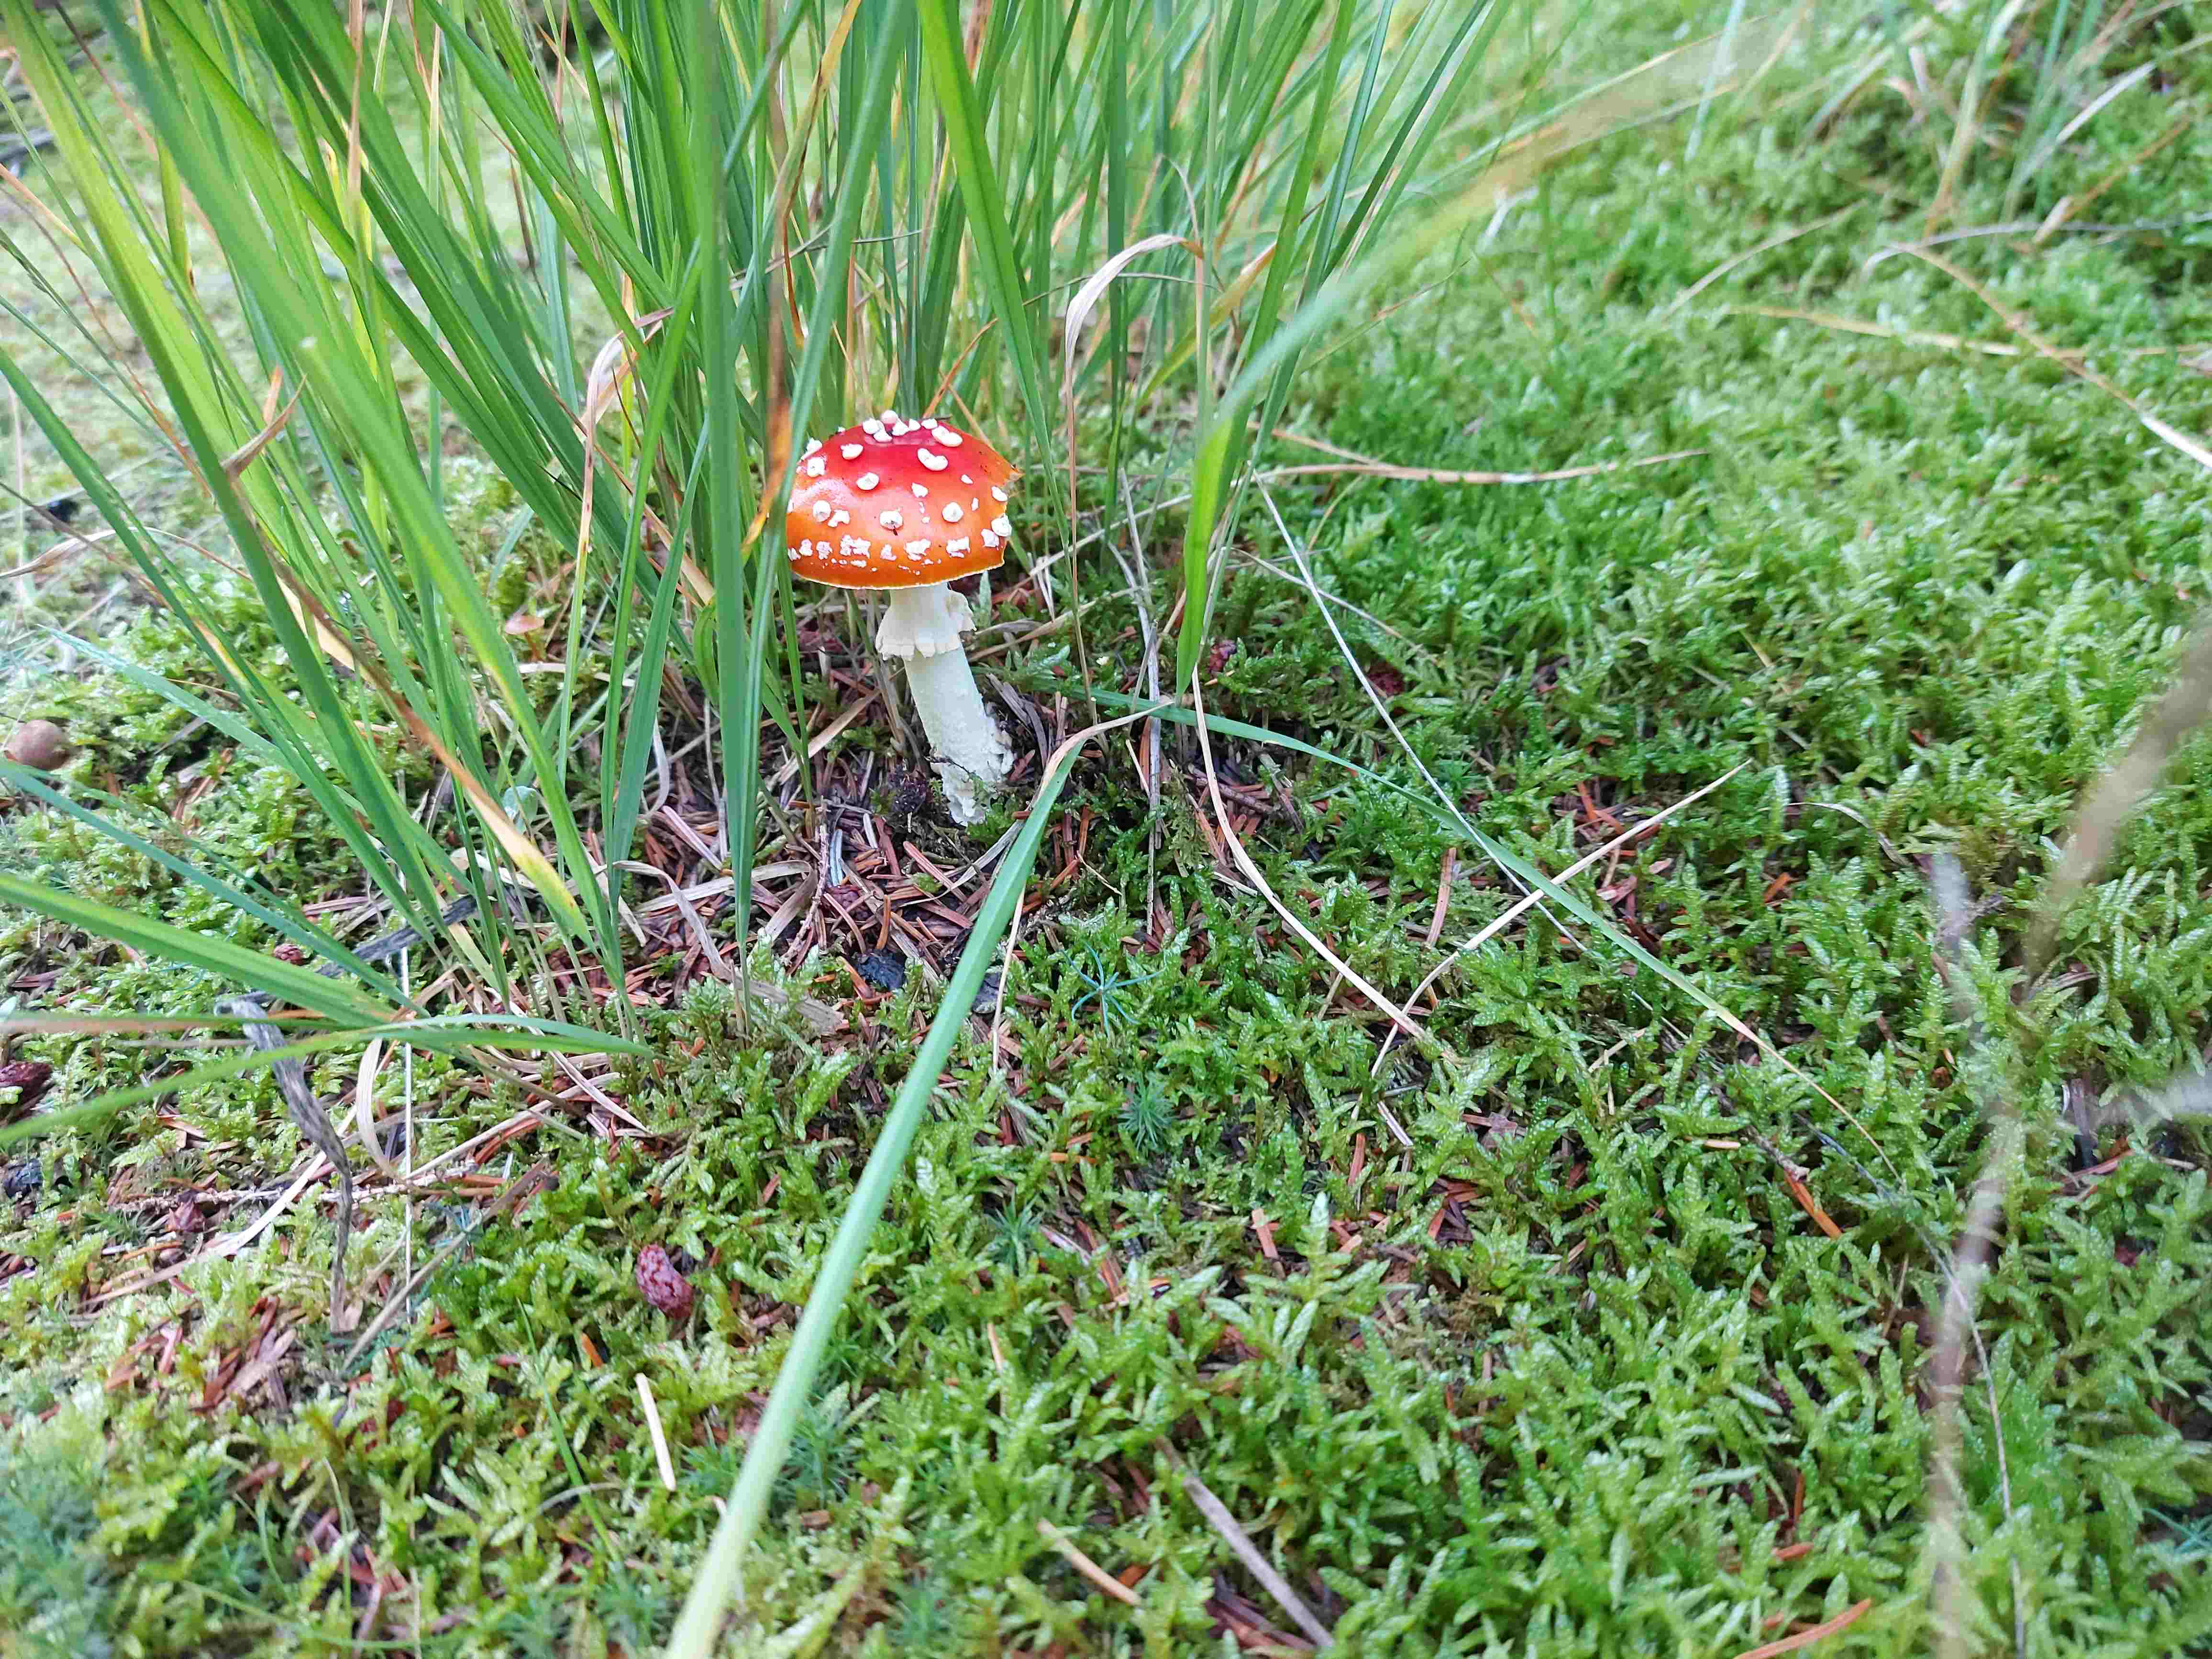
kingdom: Fungi
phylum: Basidiomycota
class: Agaricomycetes
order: Agaricales
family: Amanitaceae
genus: Amanita
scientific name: Amanita muscaria
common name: rød fluesvamp
